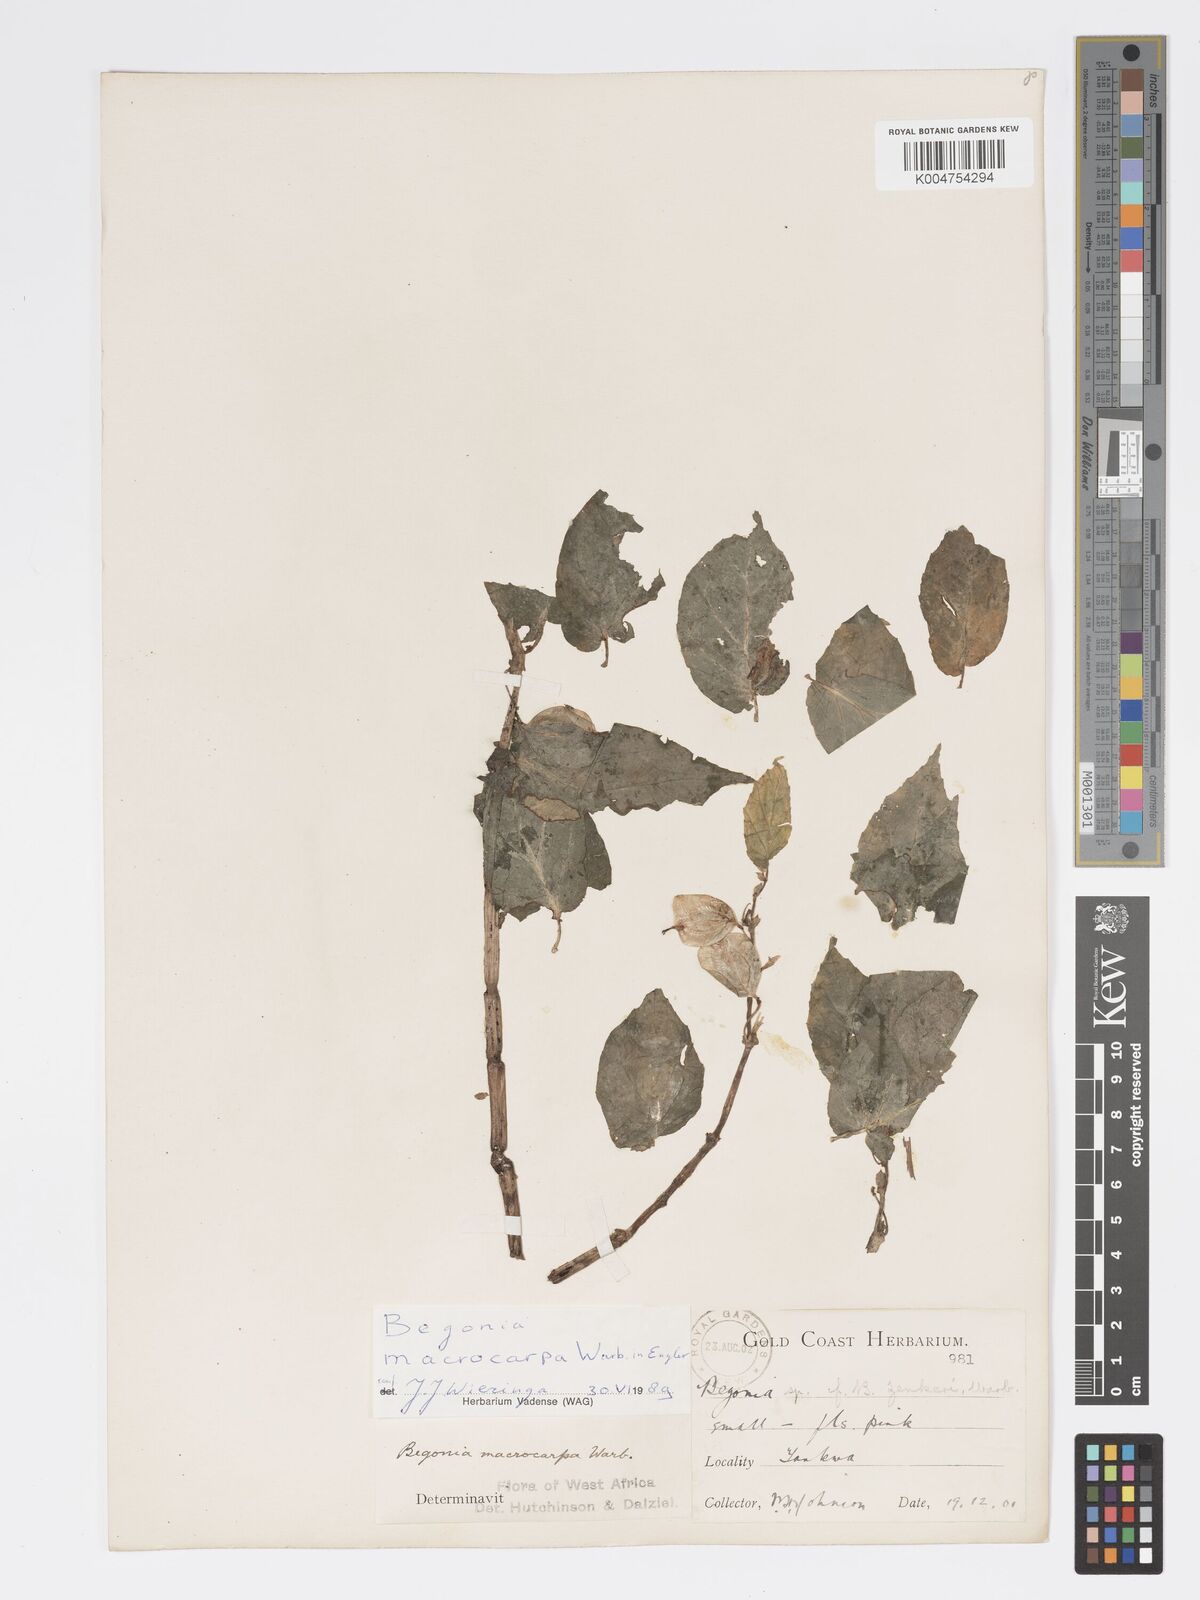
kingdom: Plantae
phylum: Tracheophyta
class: Magnoliopsida
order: Cucurbitales
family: Begoniaceae
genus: Begonia
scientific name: Begonia macrocarpa
